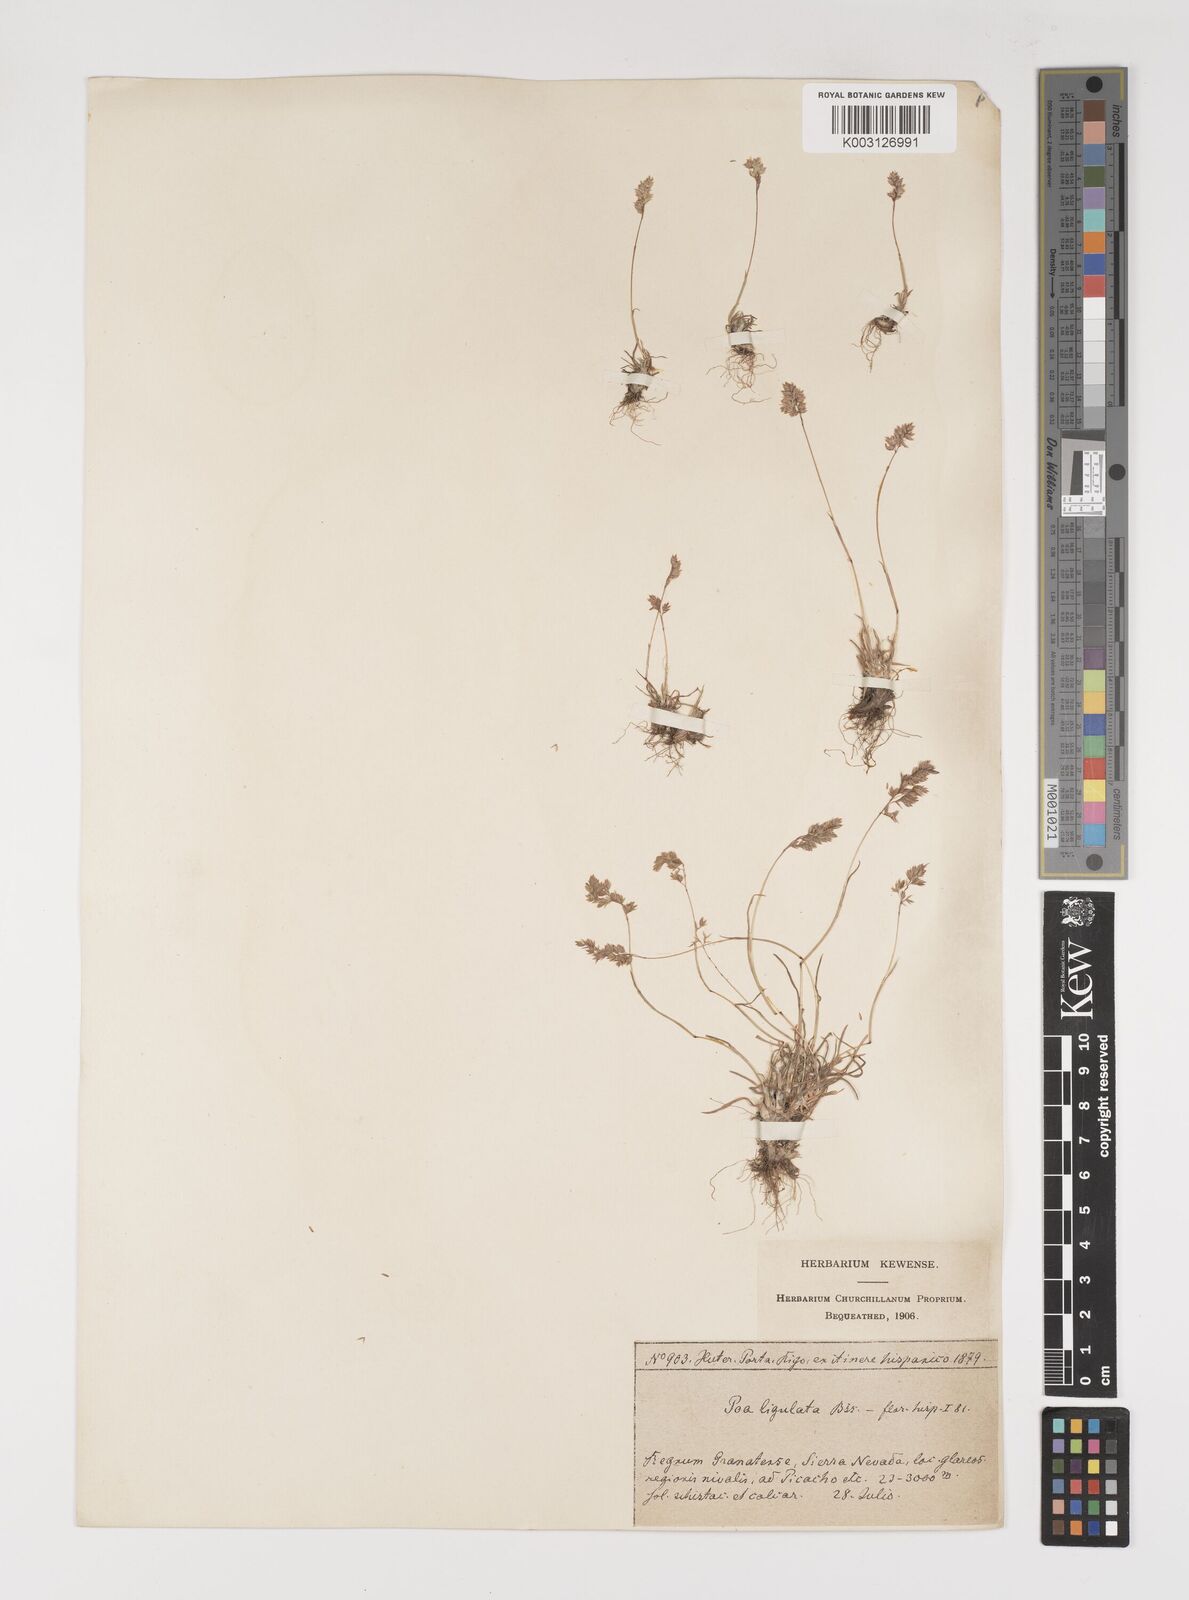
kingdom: Plantae
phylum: Tracheophyta
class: Liliopsida
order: Poales
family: Poaceae
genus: Poa
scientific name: Poa ligulata
